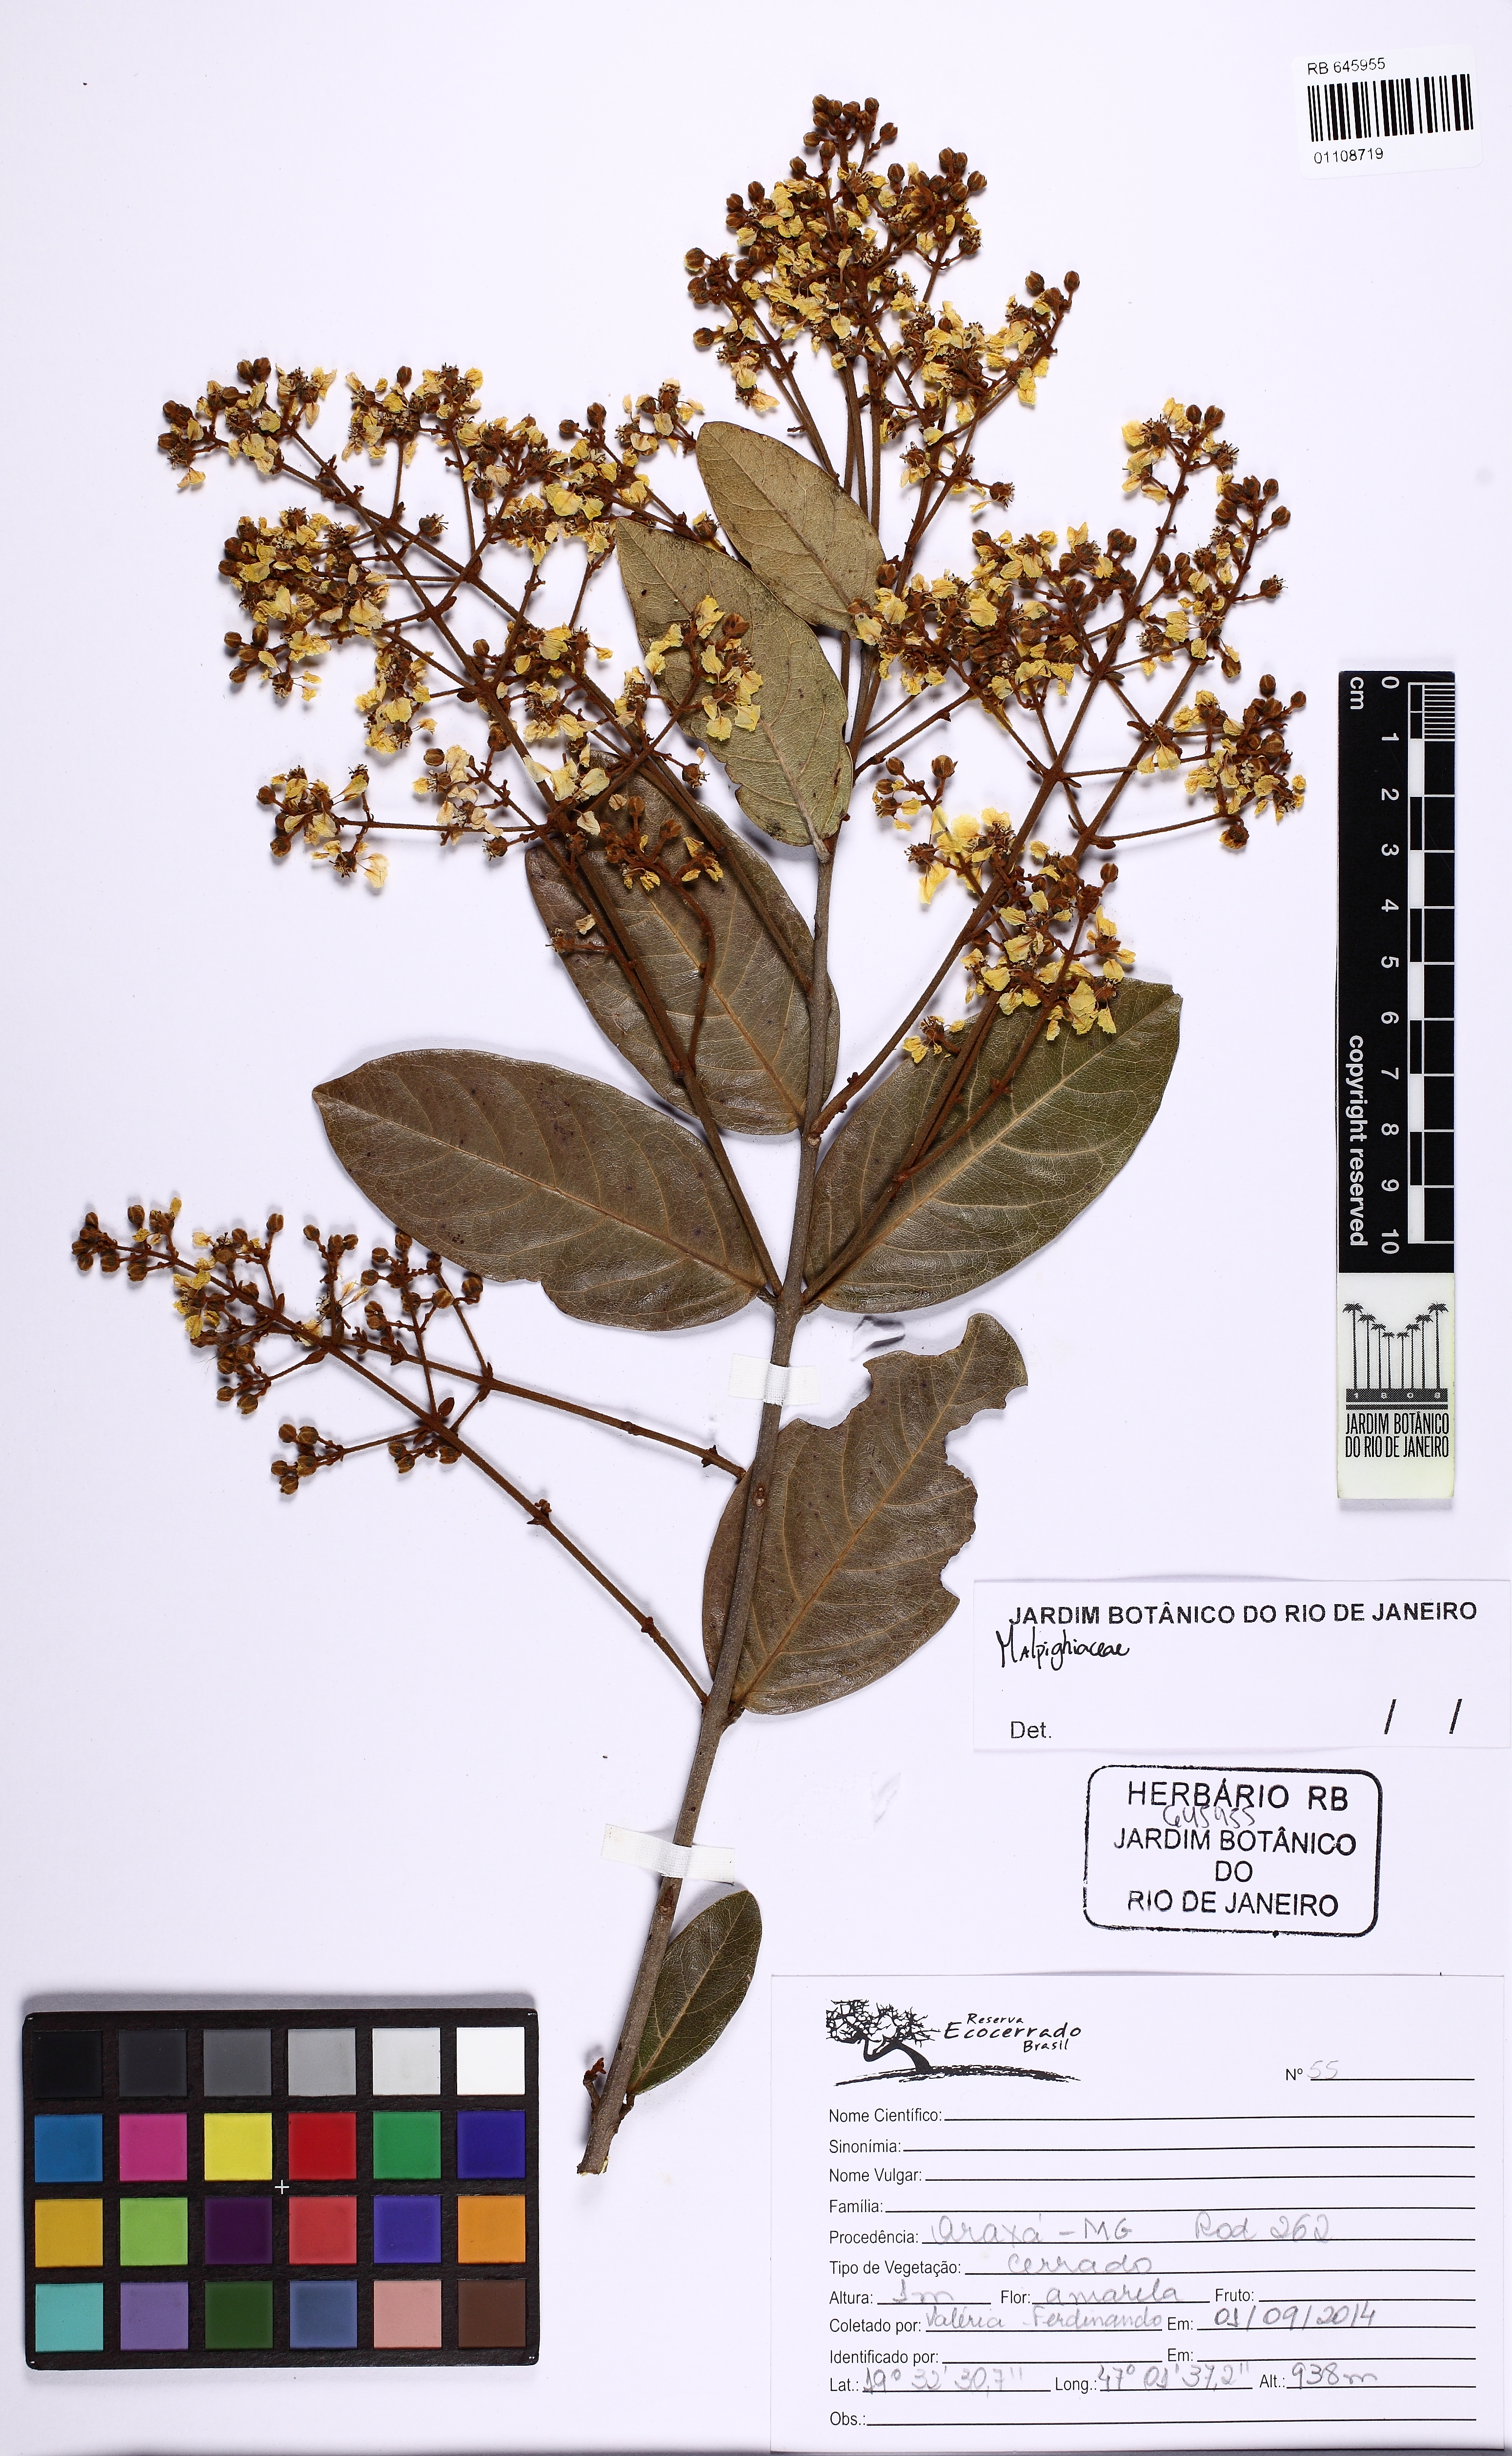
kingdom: Plantae
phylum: Tracheophyta
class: Magnoliopsida
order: Malpighiales
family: Malpighiaceae
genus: Heteropterys
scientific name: Heteropterys
